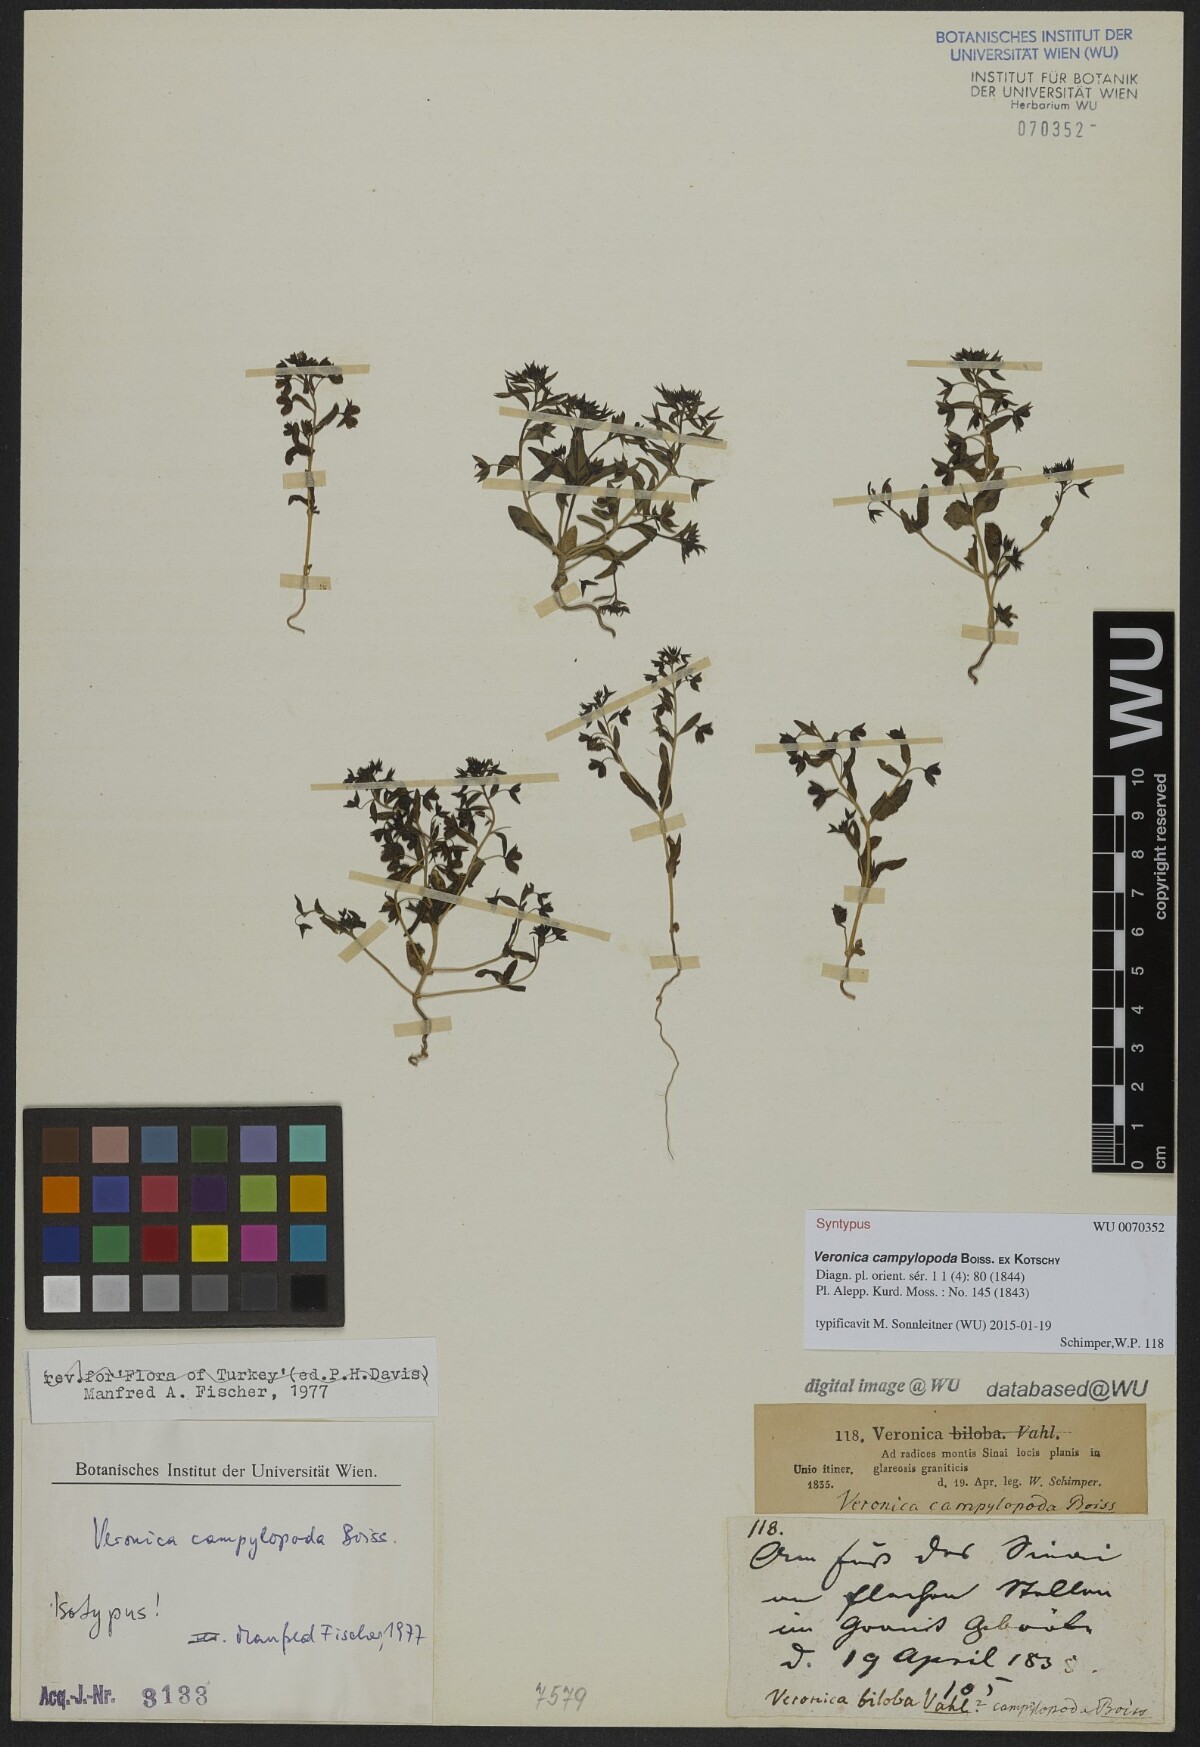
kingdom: Plantae
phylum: Tracheophyta
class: Magnoliopsida
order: Lamiales
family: Scrophulariaceae
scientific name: Scrophulariaceae
